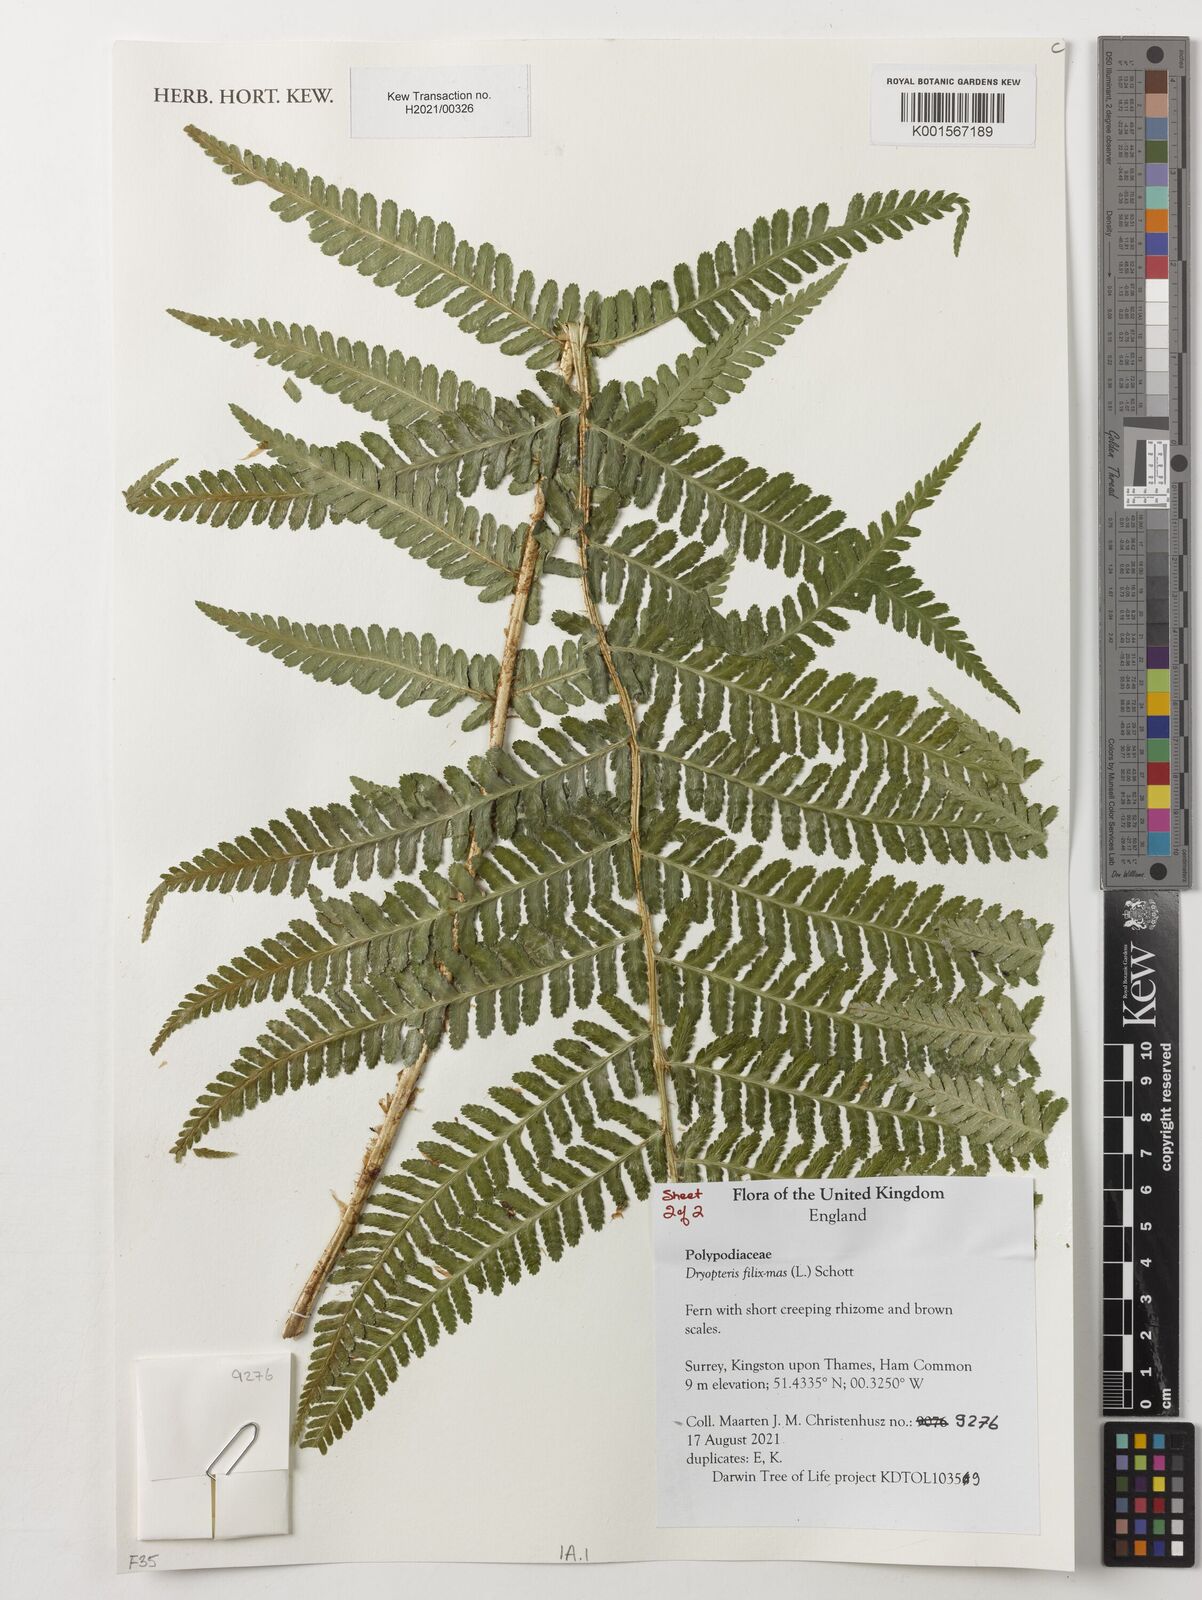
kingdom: Plantae
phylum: Tracheophyta
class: Polypodiopsida
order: Polypodiales
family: Dryopteridaceae
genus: Dryopteris
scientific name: Dryopteris filix-mas
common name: Male fern
